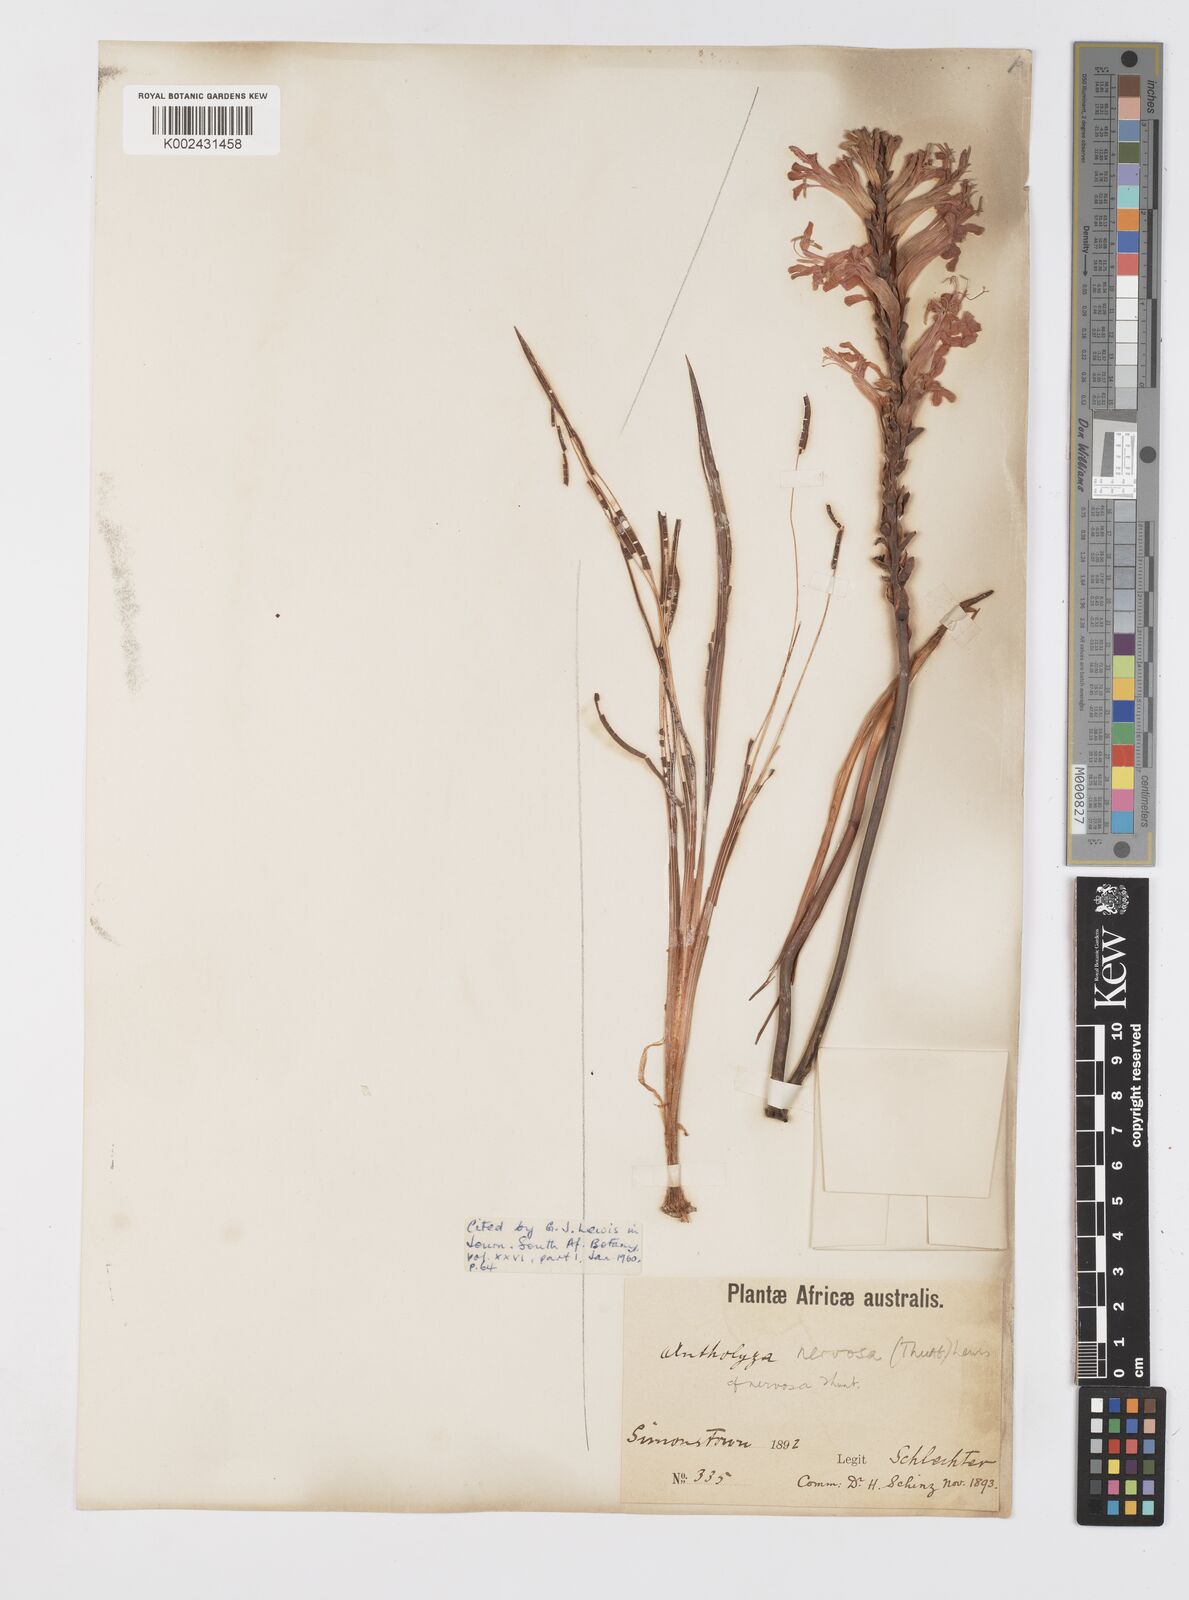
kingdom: Plantae
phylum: Tracheophyta
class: Liliopsida
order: Asparagales
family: Iridaceae
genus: Tritoniopsis
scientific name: Tritoniopsis nervosa
